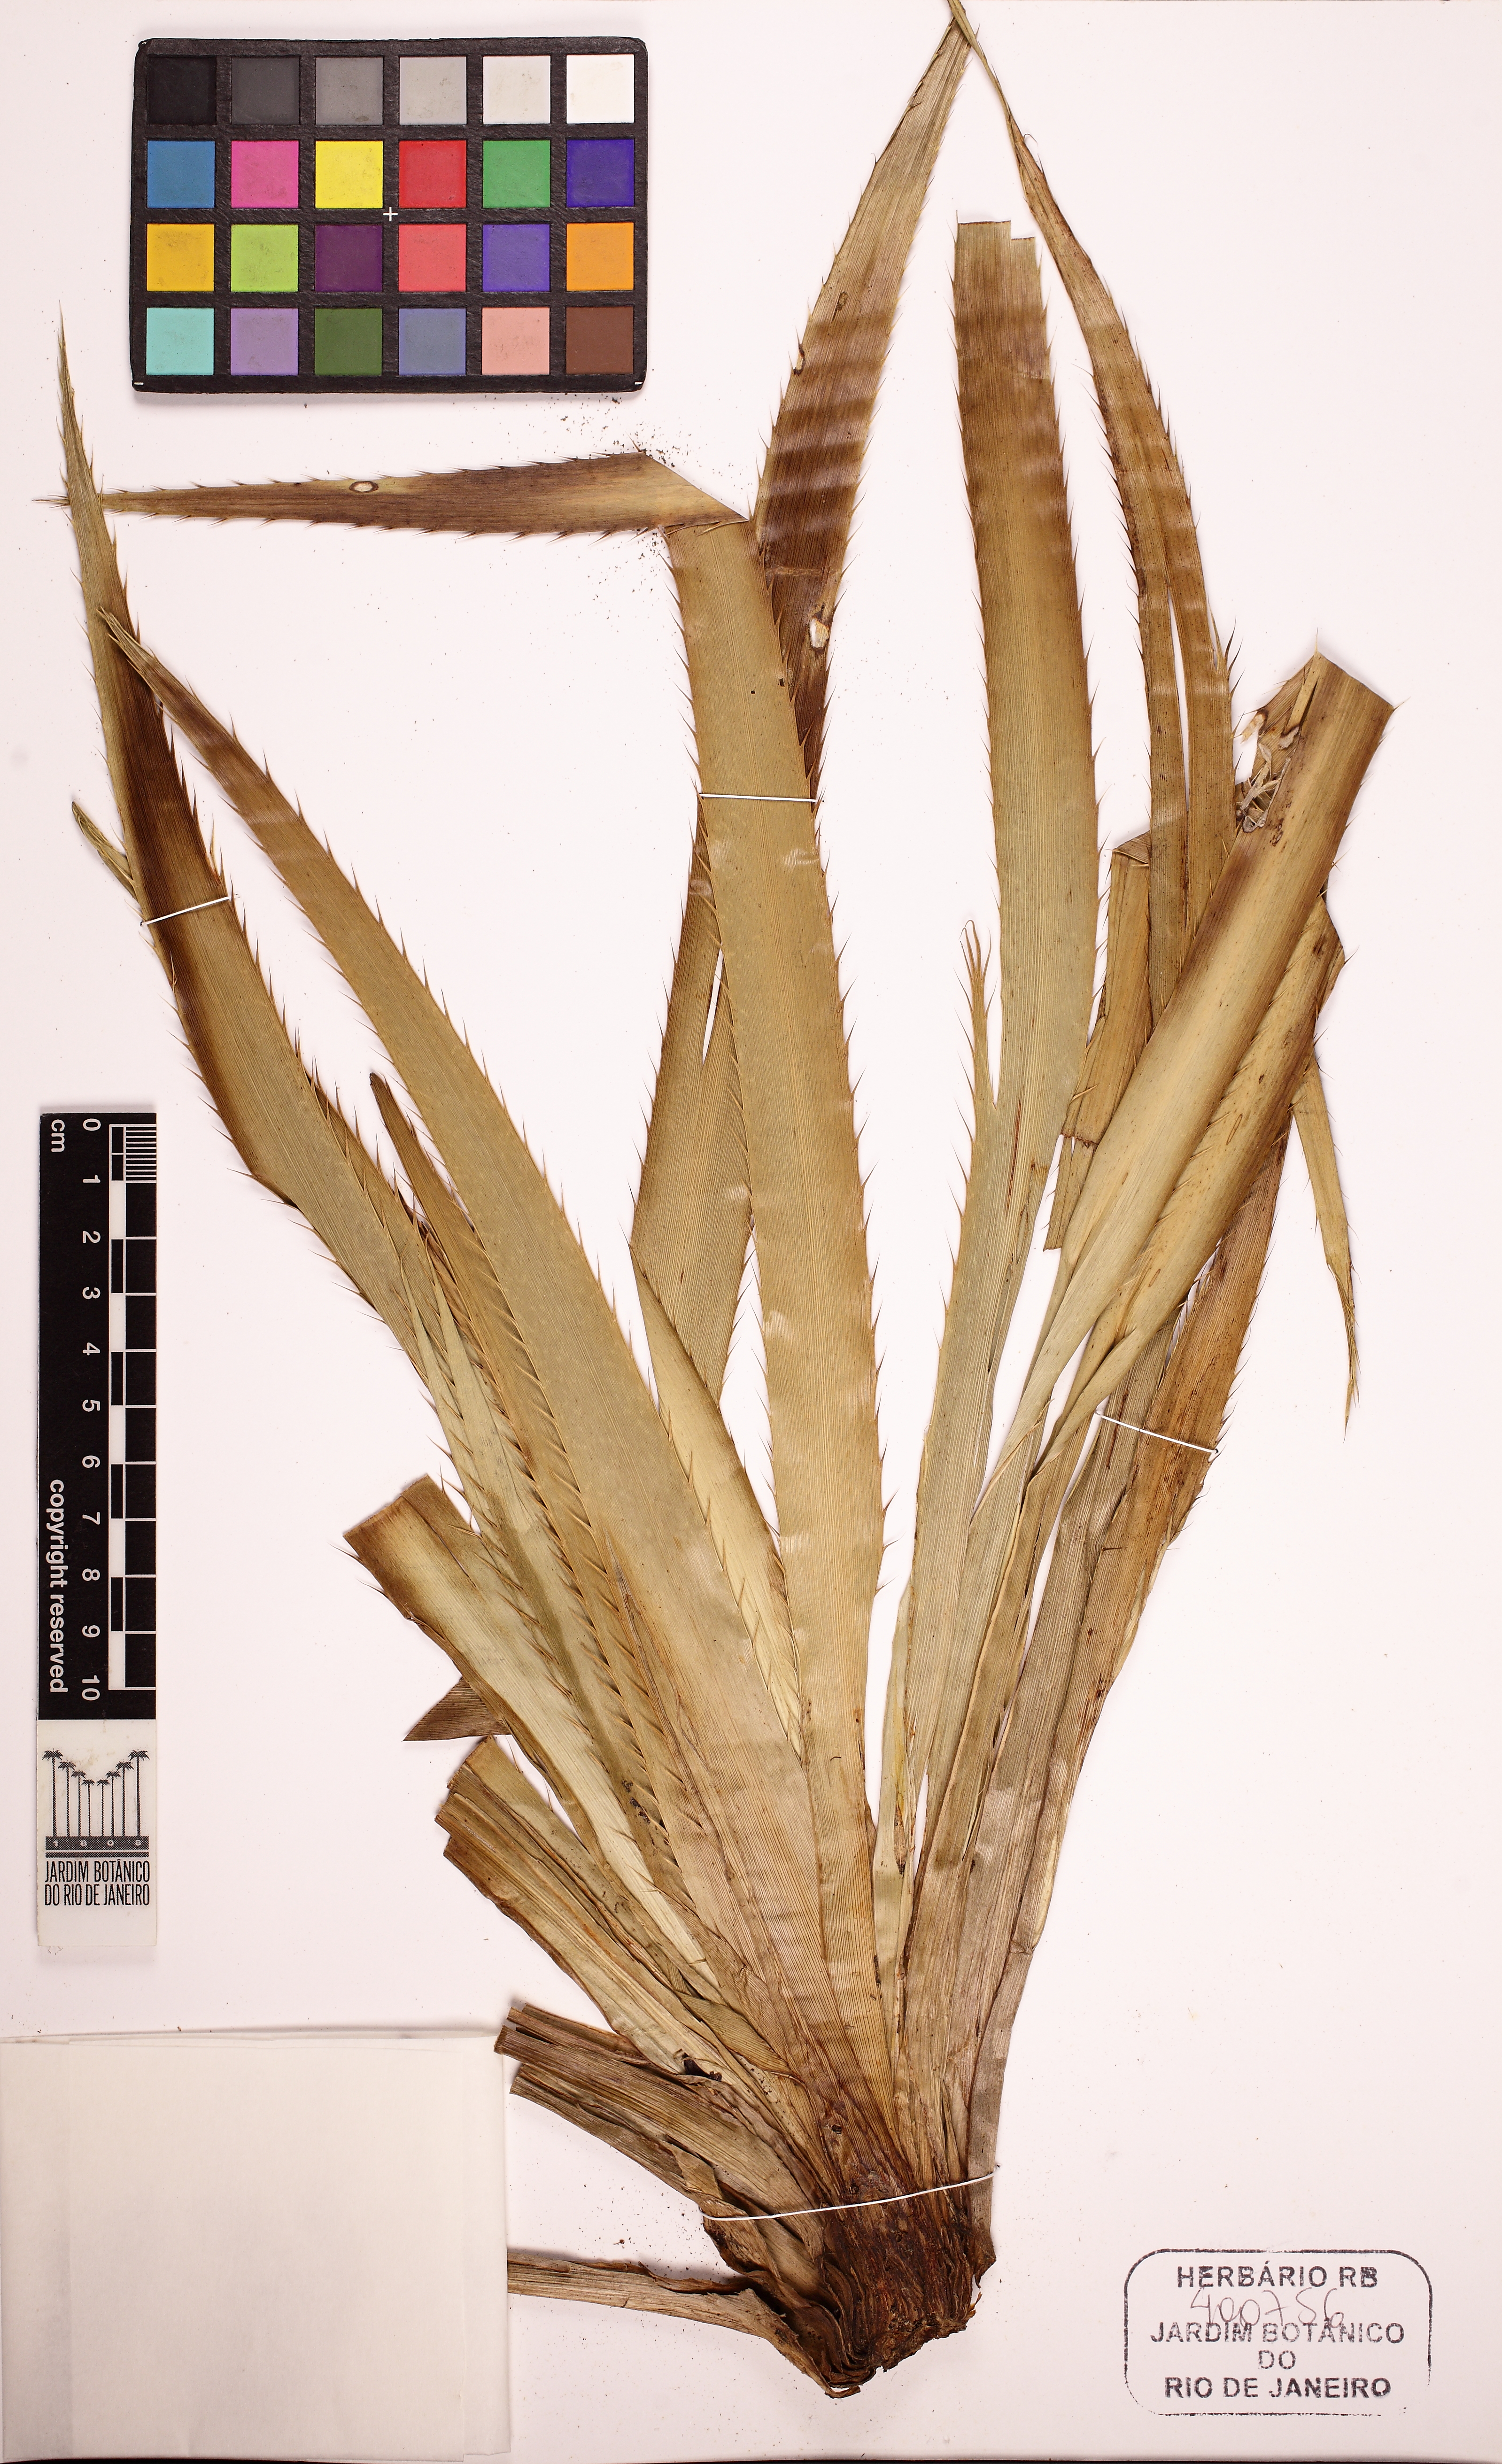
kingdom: Plantae
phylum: Tracheophyta
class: Magnoliopsida
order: Apiales
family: Apiaceae
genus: Eryngium
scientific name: Eryngium fluminense
